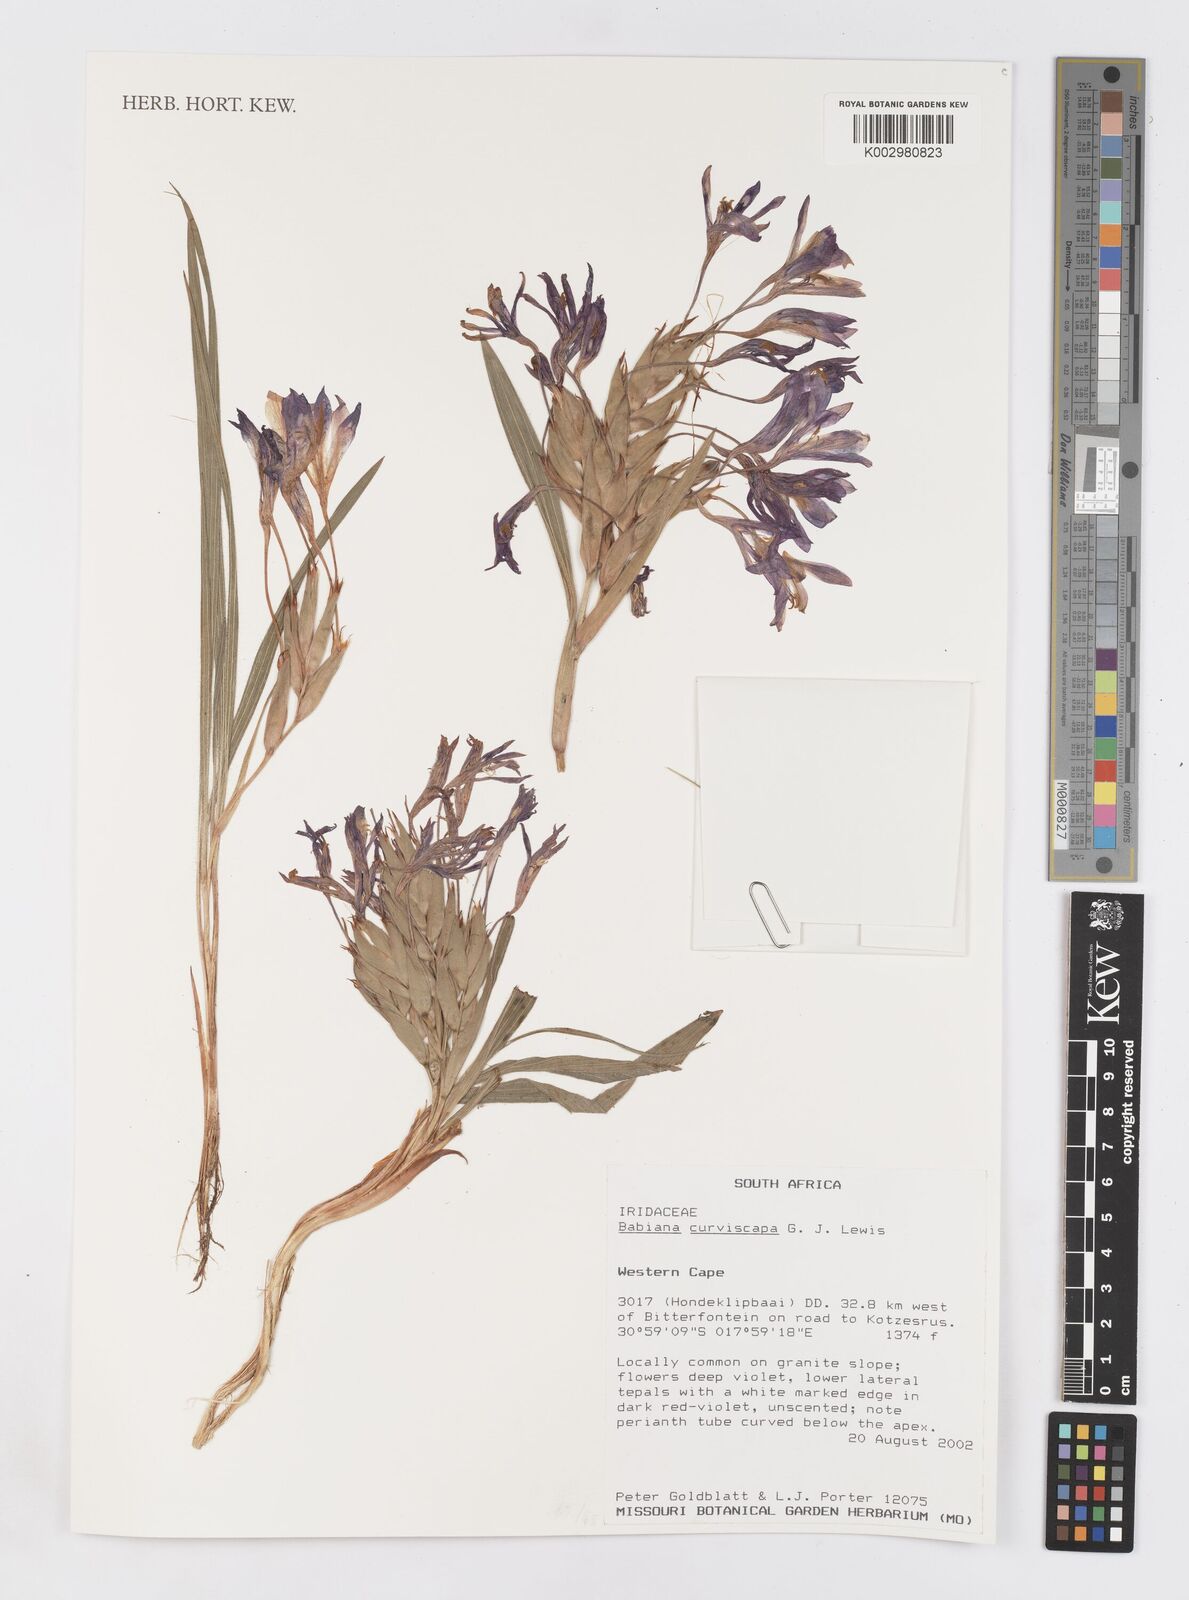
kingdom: Plantae
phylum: Tracheophyta
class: Liliopsida
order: Asparagales
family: Iridaceae
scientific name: Iridaceae
